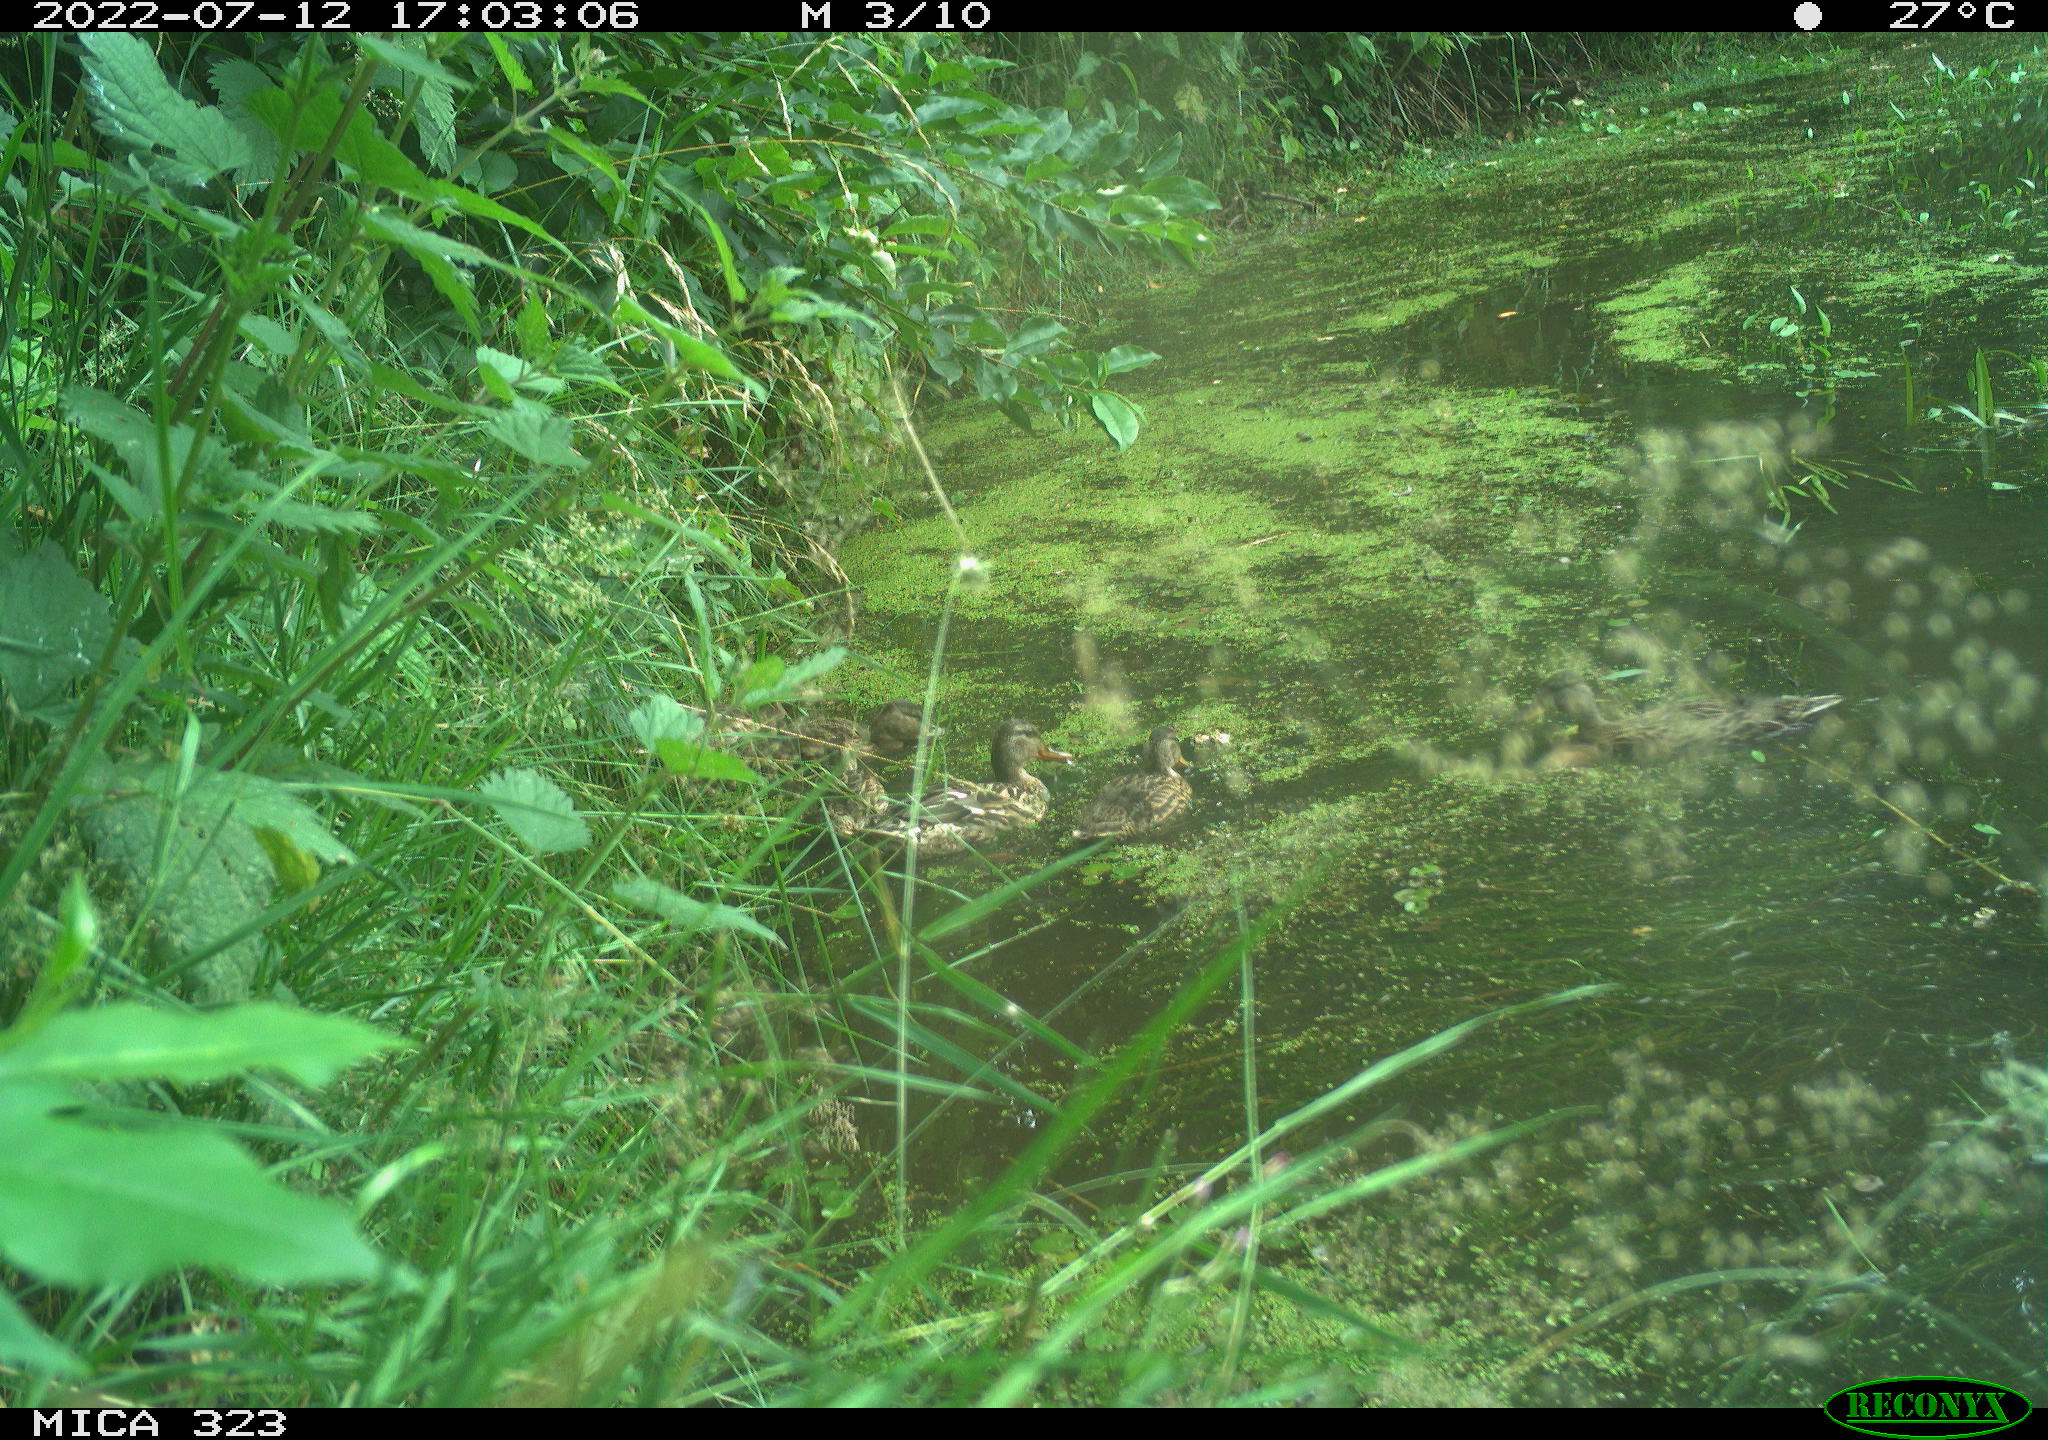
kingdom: Animalia
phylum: Chordata
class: Aves
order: Anseriformes
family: Anatidae
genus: Anas
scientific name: Anas platyrhynchos
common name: Mallard
